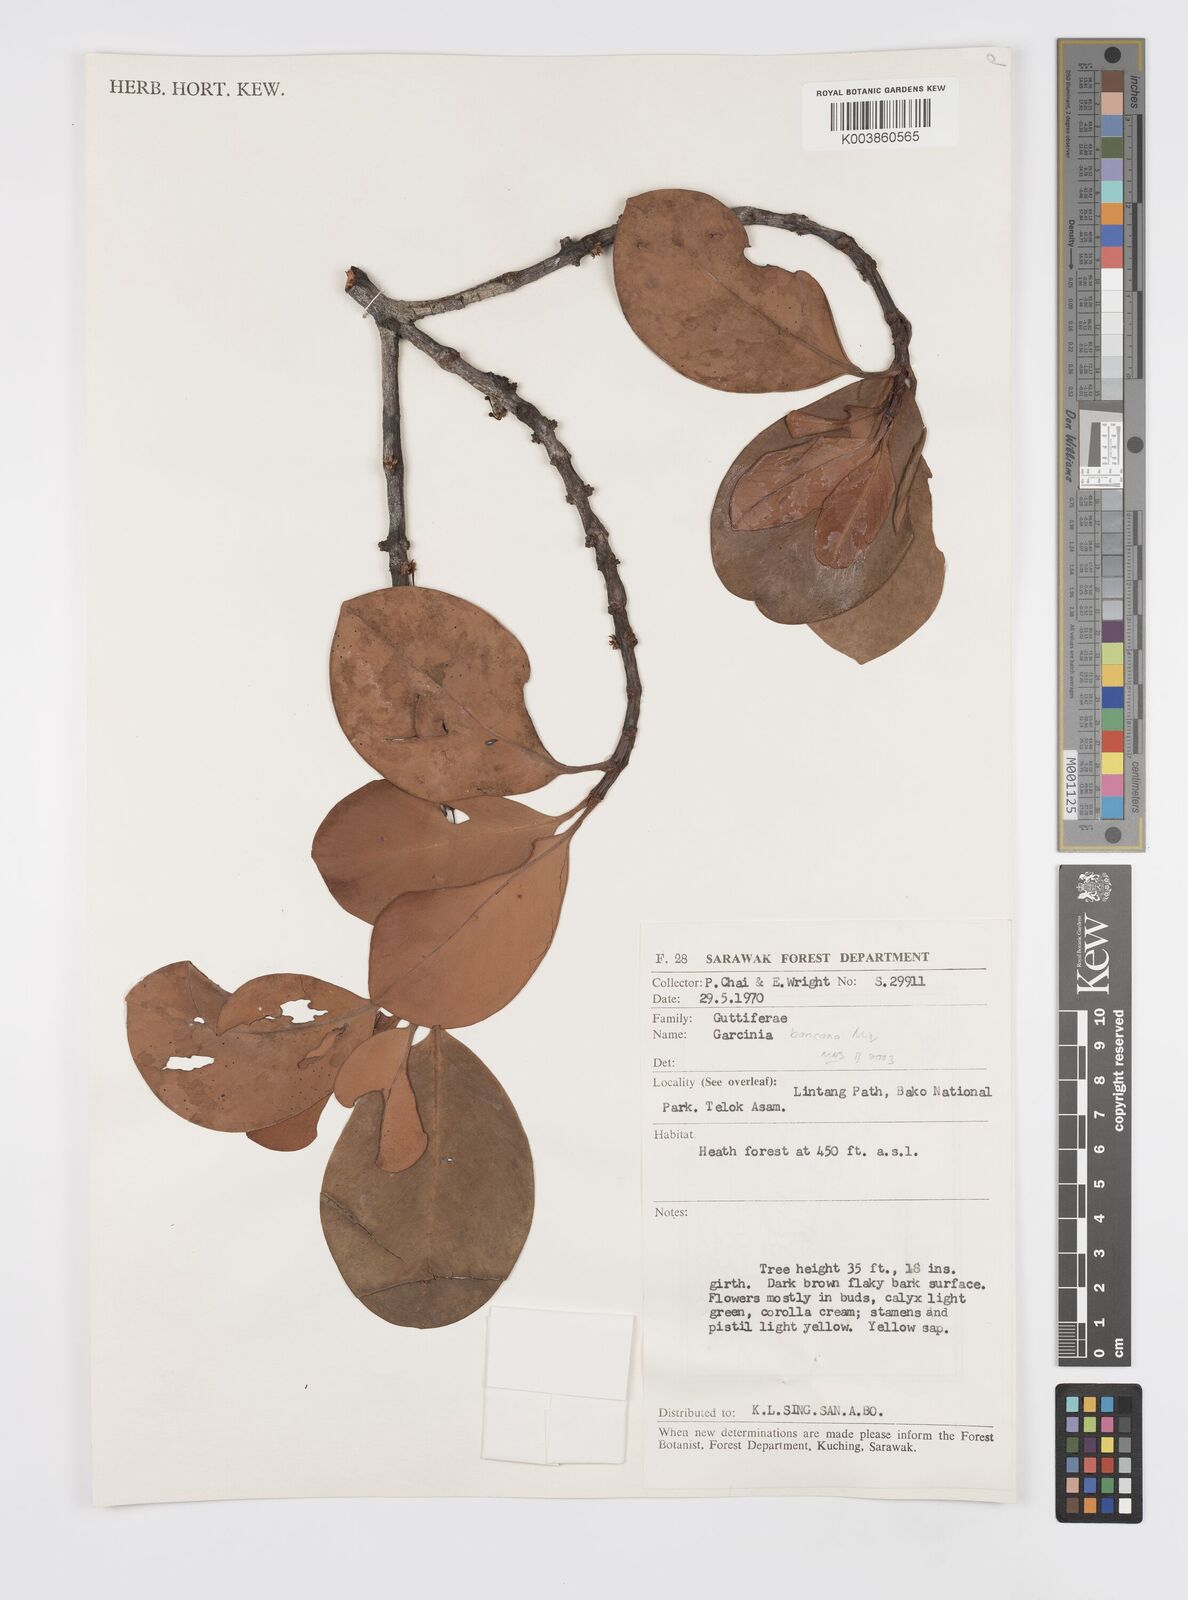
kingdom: Plantae
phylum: Tracheophyta
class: Magnoliopsida
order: Malpighiales
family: Clusiaceae
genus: Garcinia
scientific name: Garcinia bancana
